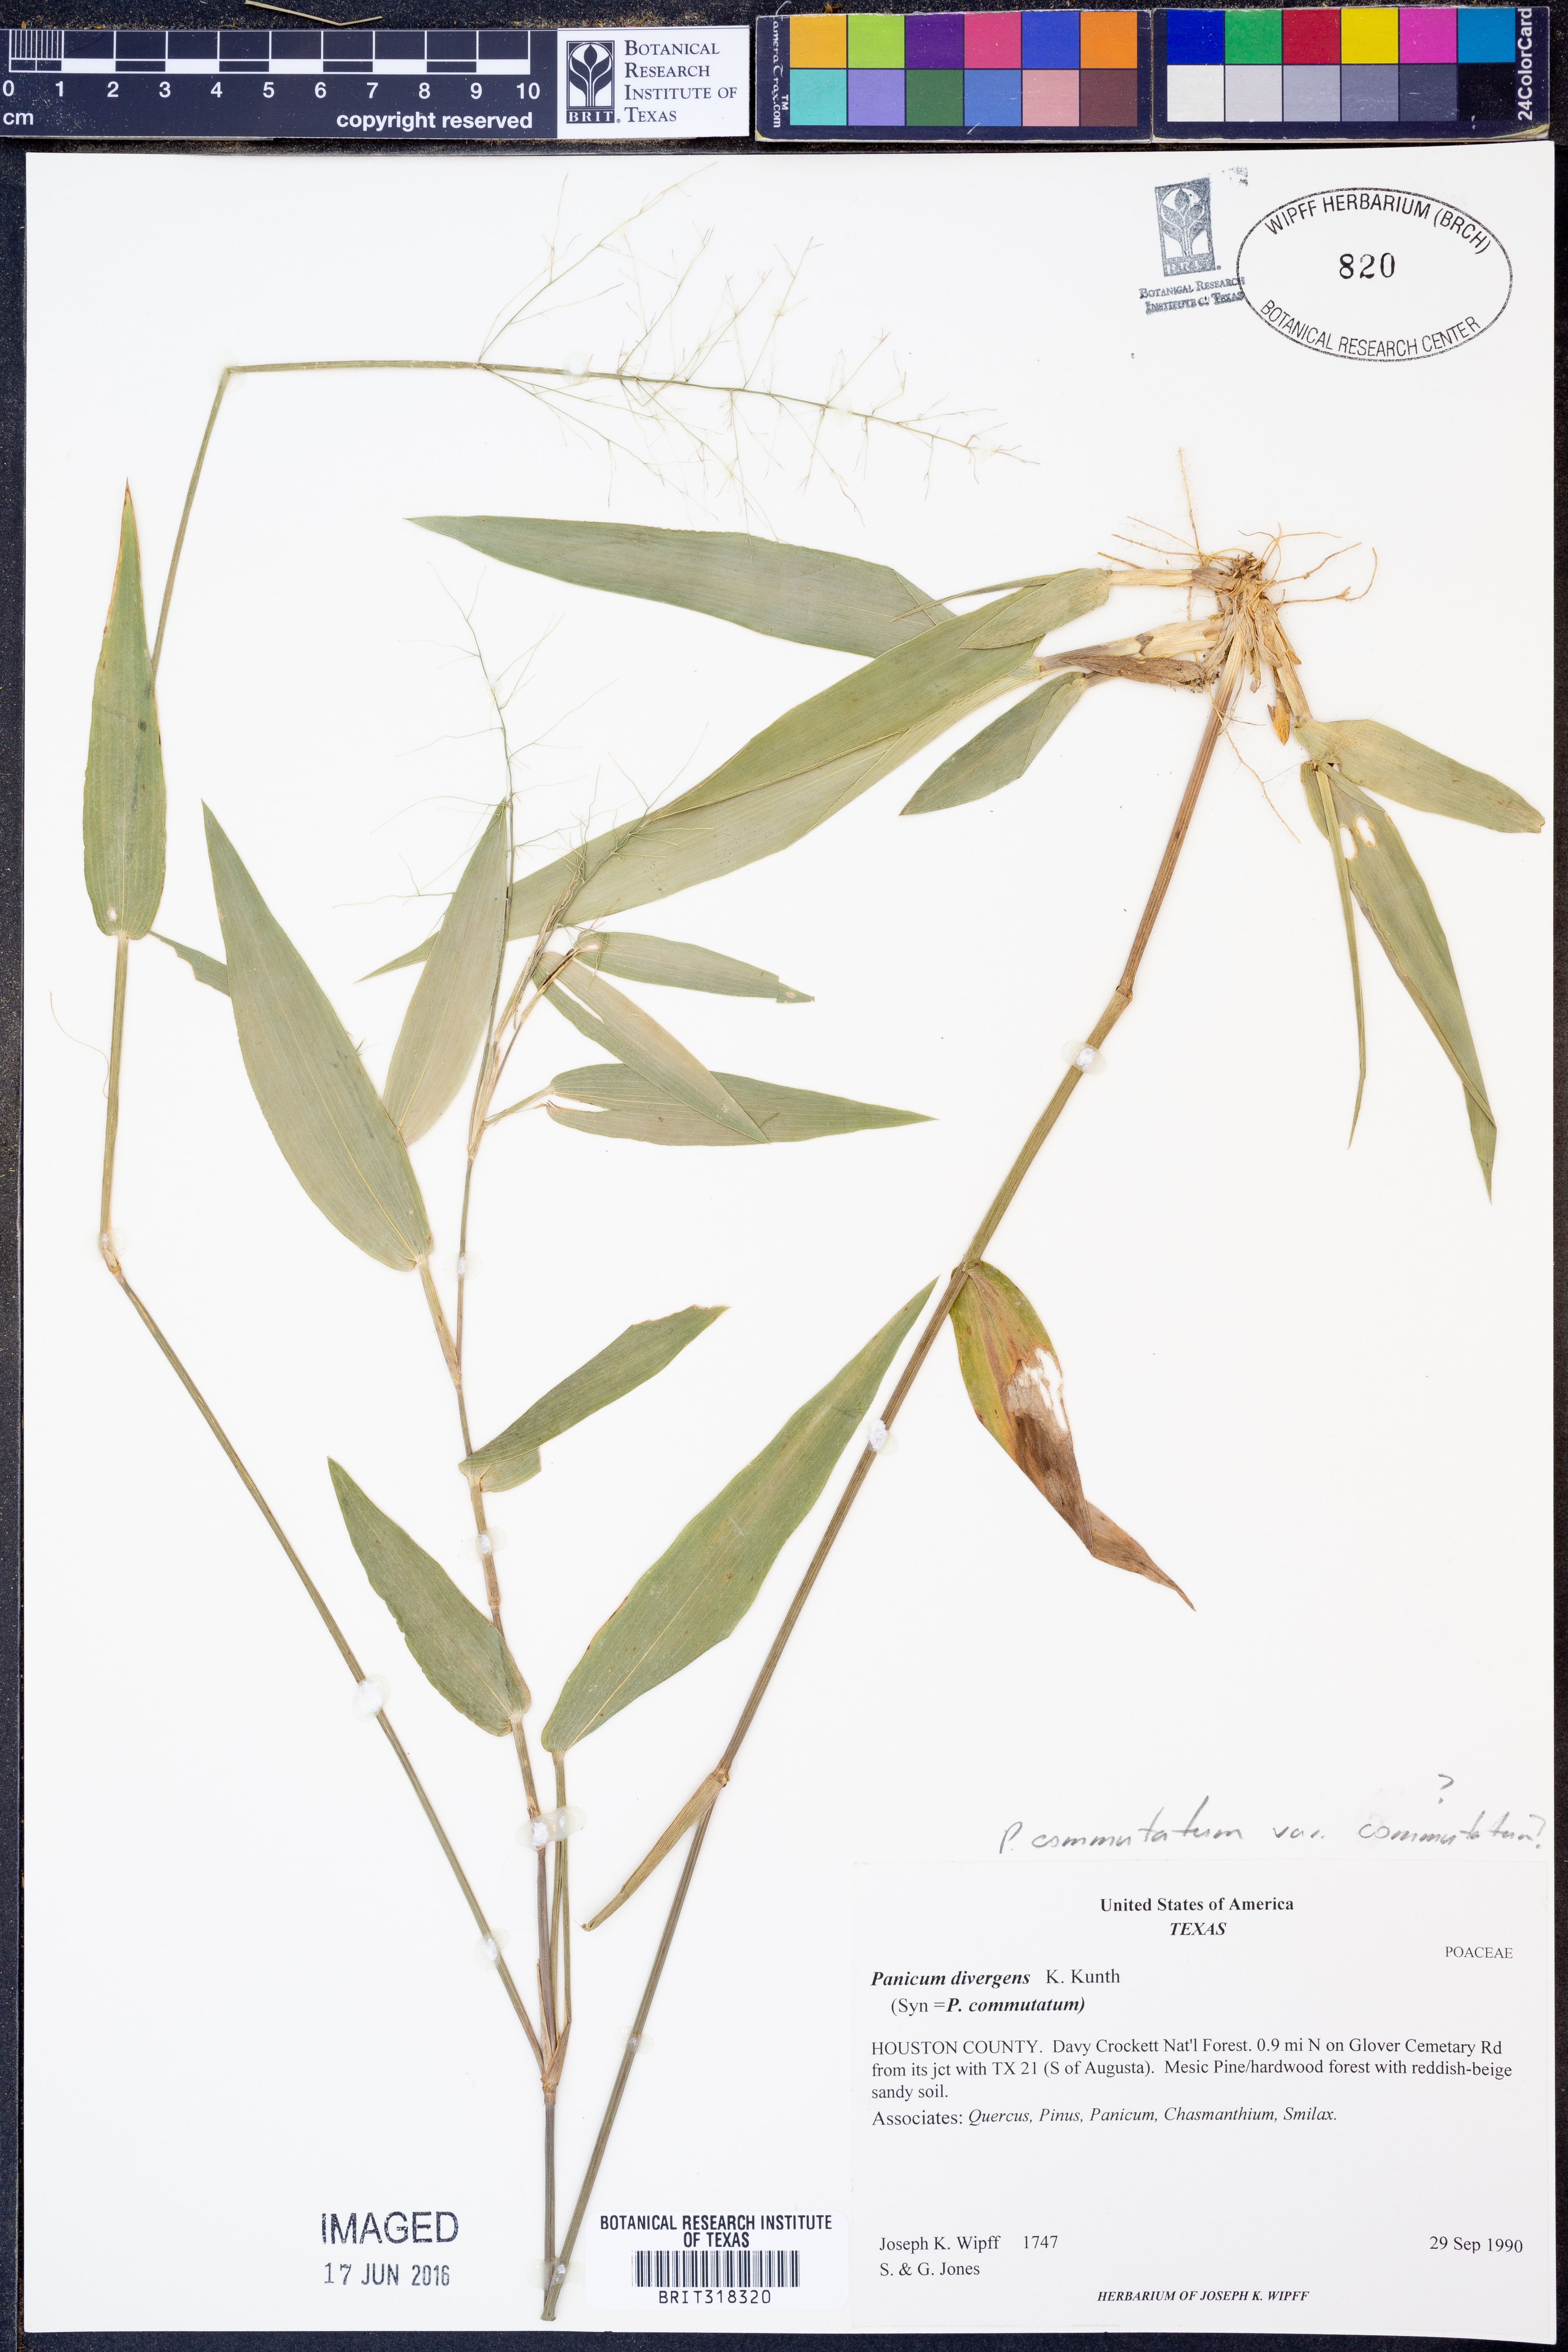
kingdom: Plantae
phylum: Tracheophyta
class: Liliopsida
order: Poales
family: Poaceae
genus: Dichanthelium
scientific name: Dichanthelium commutatum
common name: Variable witchgrass
